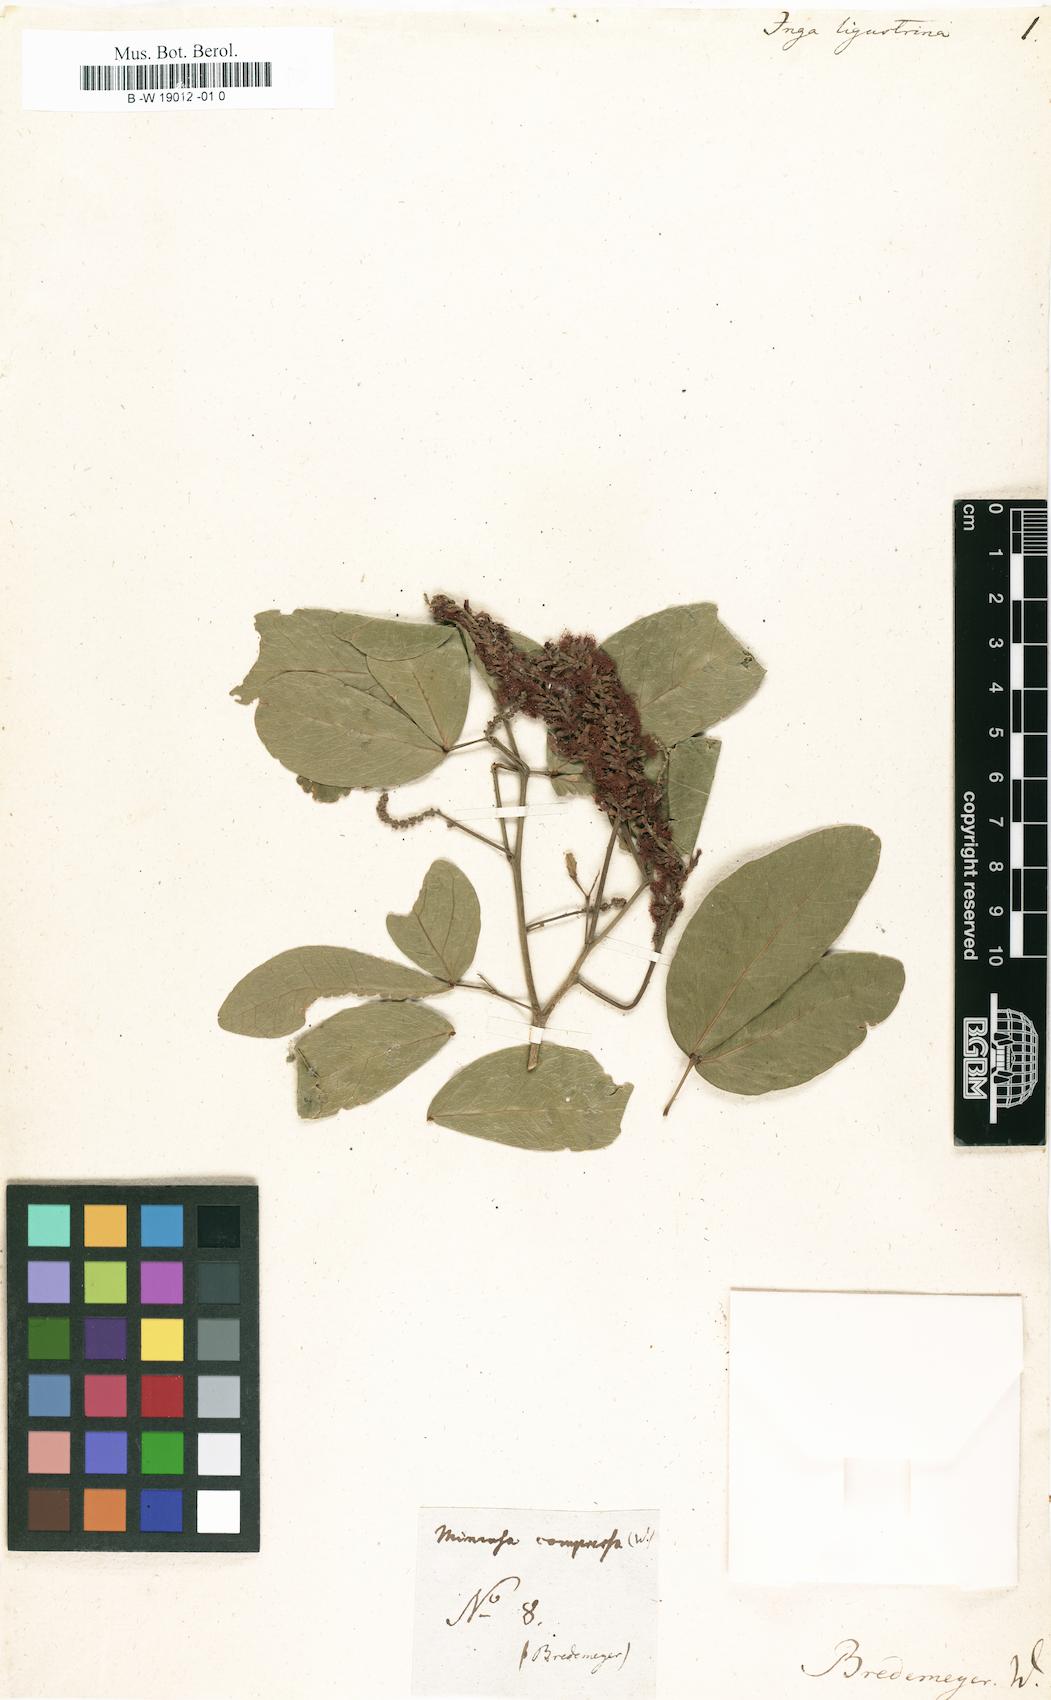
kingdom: Plantae
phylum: Tracheophyta
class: Magnoliopsida
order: Fabales
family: Fabaceae
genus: Pithecellobium
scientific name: Pithecellobium lanceolatum
